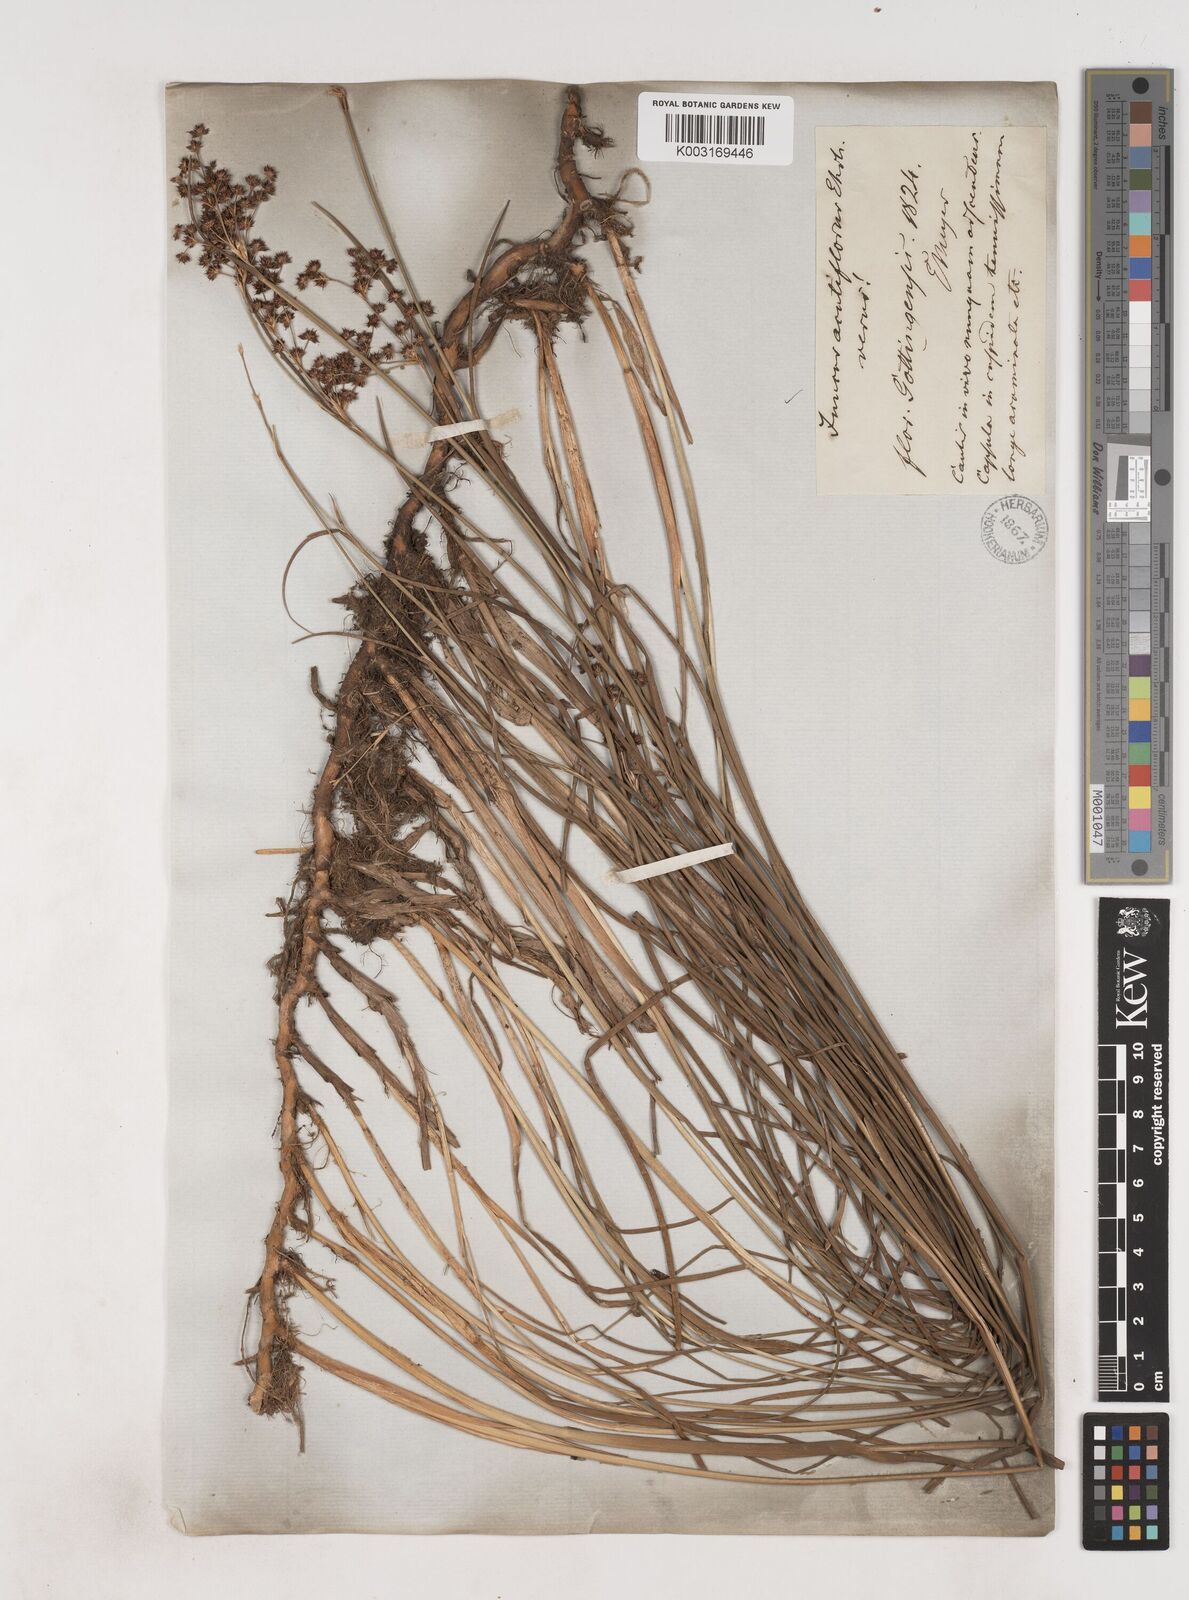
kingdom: Plantae
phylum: Tracheophyta
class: Liliopsida
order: Poales
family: Juncaceae
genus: Juncus
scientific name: Juncus acutiflorus
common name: Sharp-flowered rush
